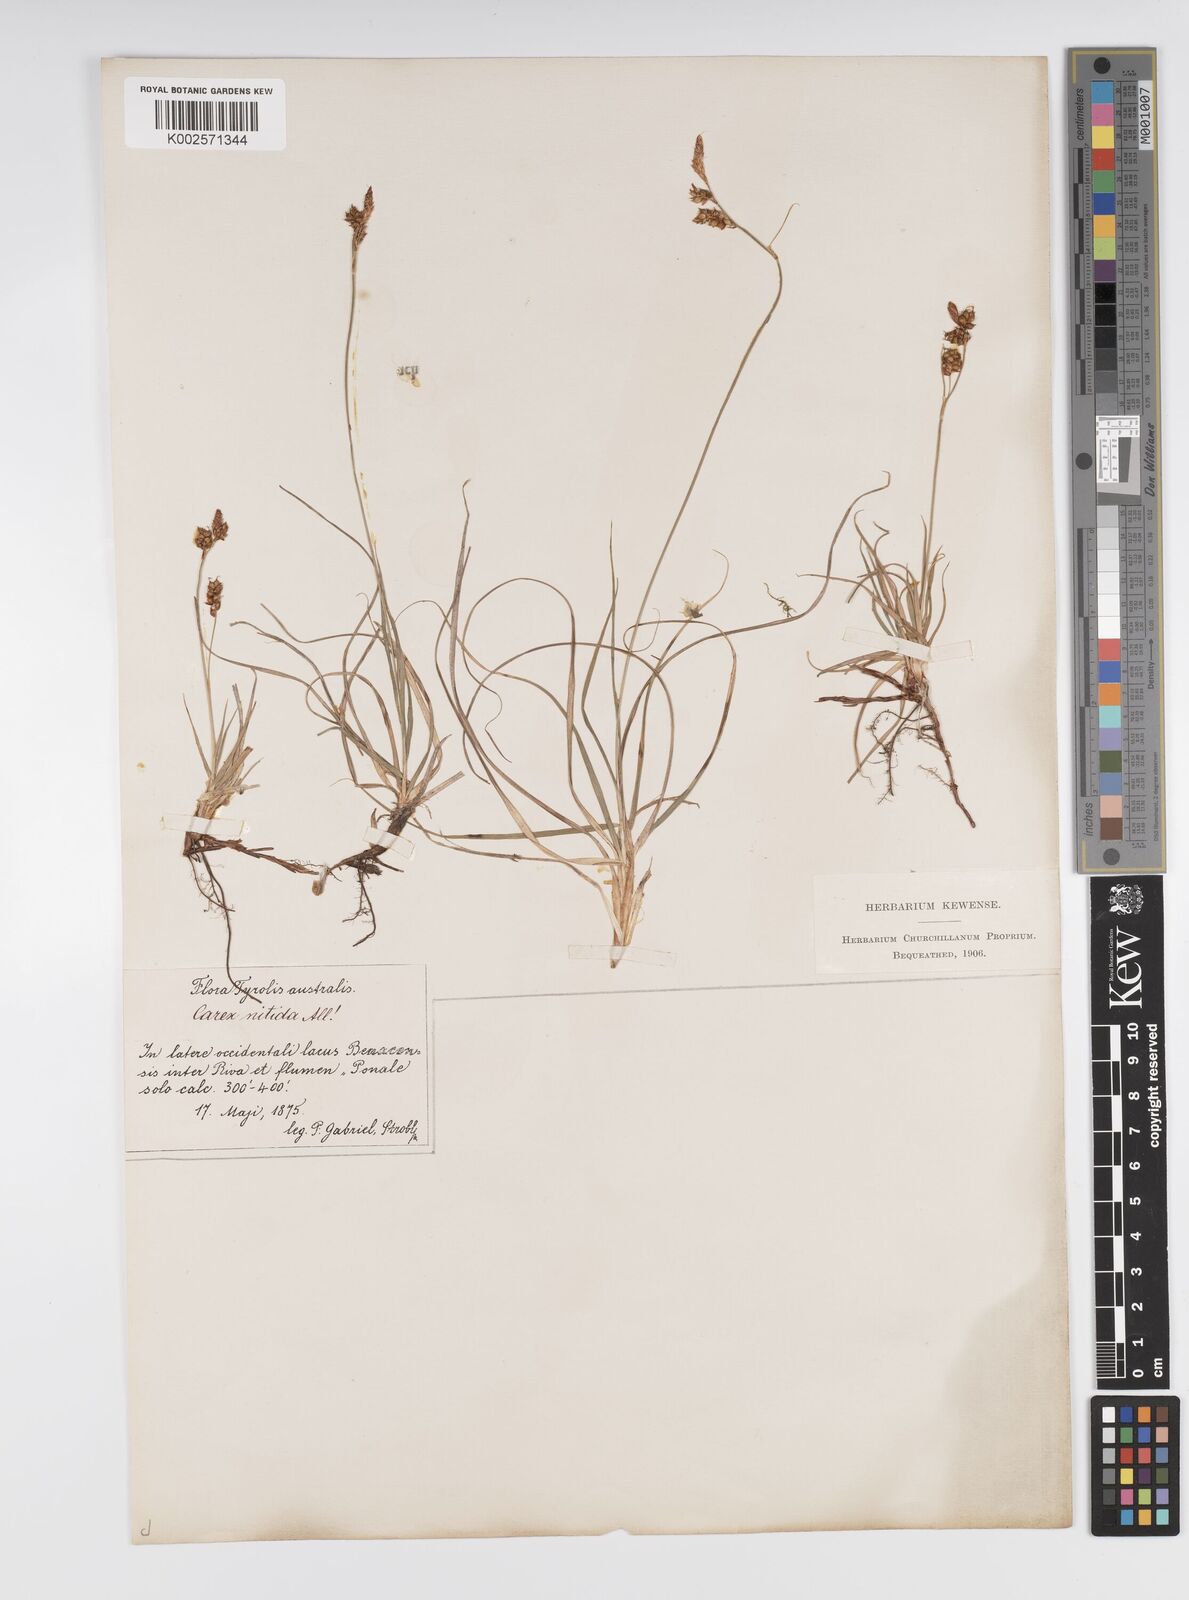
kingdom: Plantae
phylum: Tracheophyta
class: Liliopsida
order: Poales
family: Cyperaceae
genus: Carex
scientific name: Carex liparocarpos
